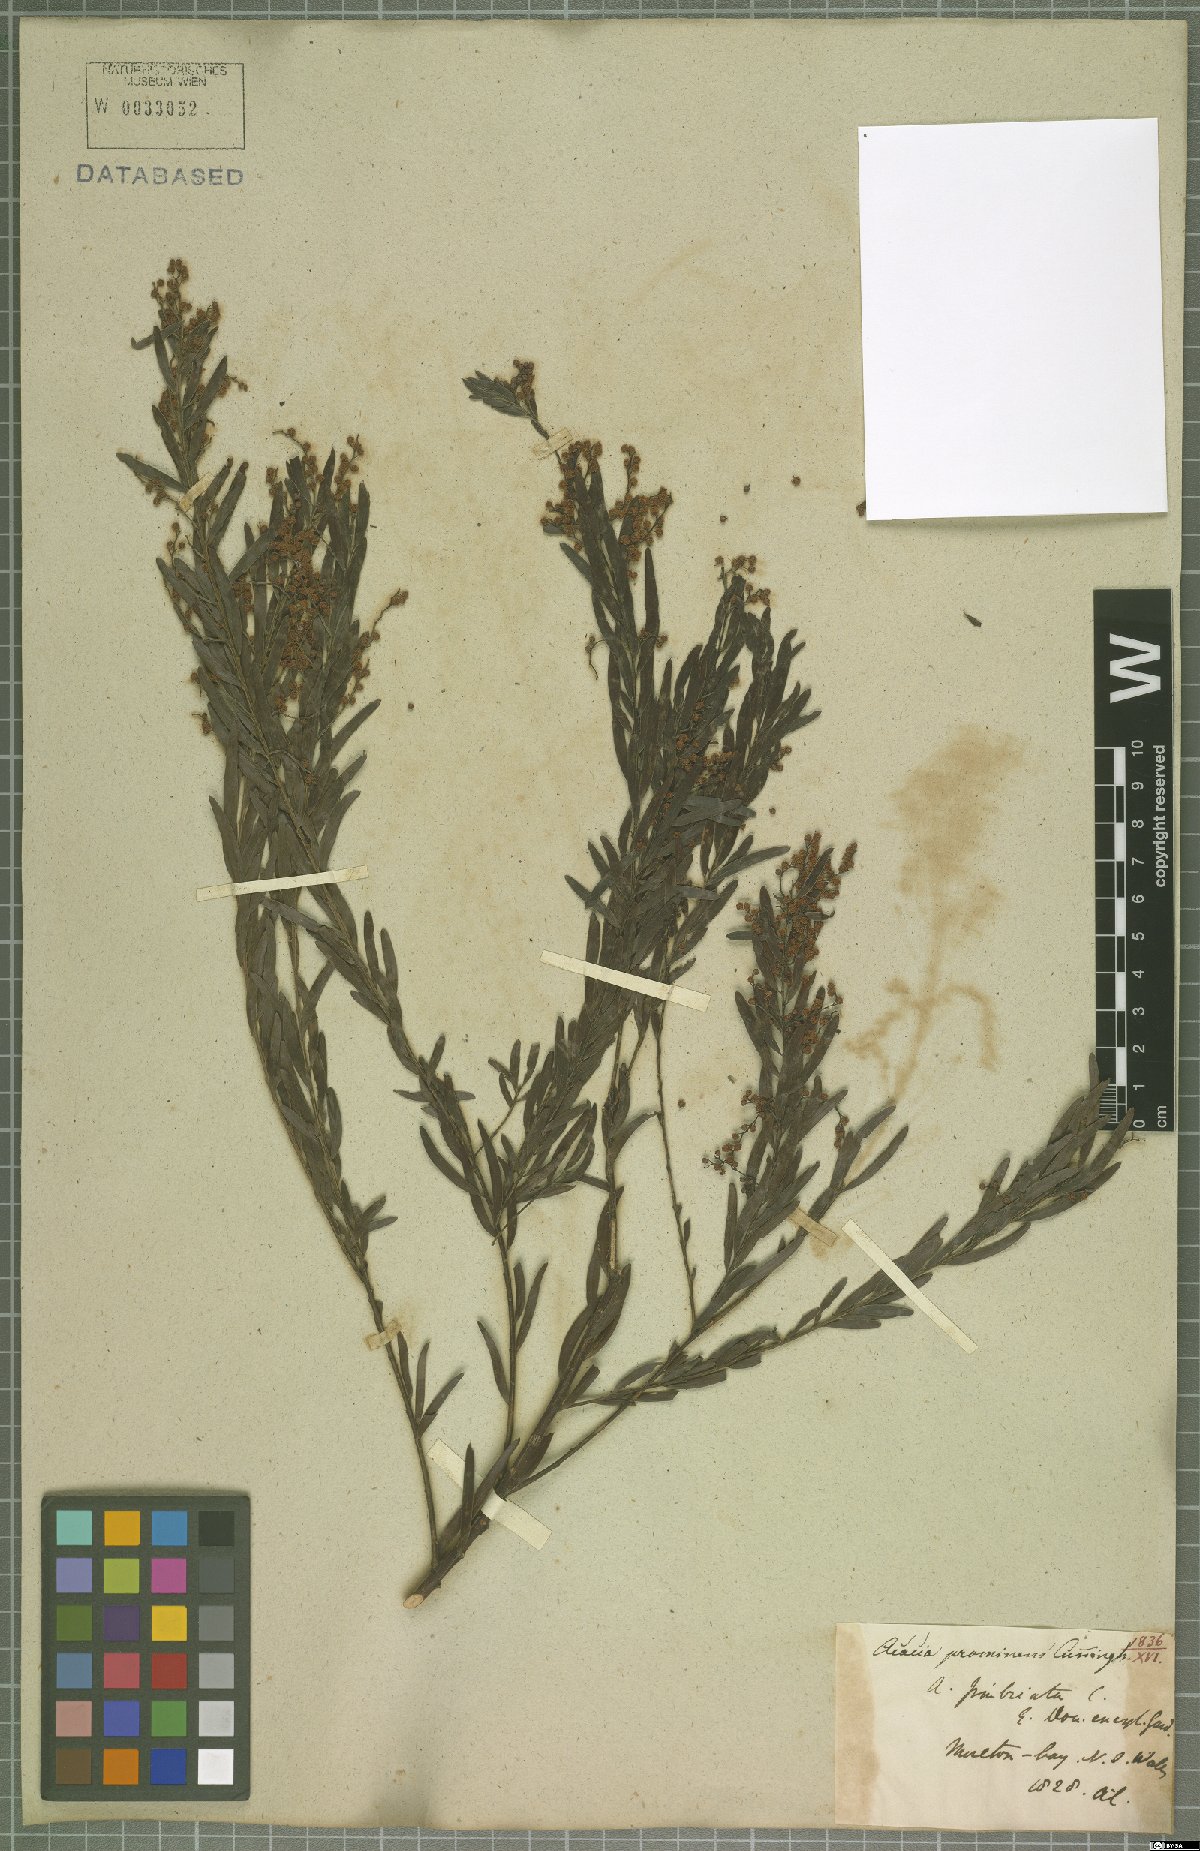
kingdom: Plantae
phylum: Tracheophyta
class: Magnoliopsida
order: Fabales
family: Fabaceae
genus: Acacia
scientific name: Acacia prominens
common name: Gosford wattle
